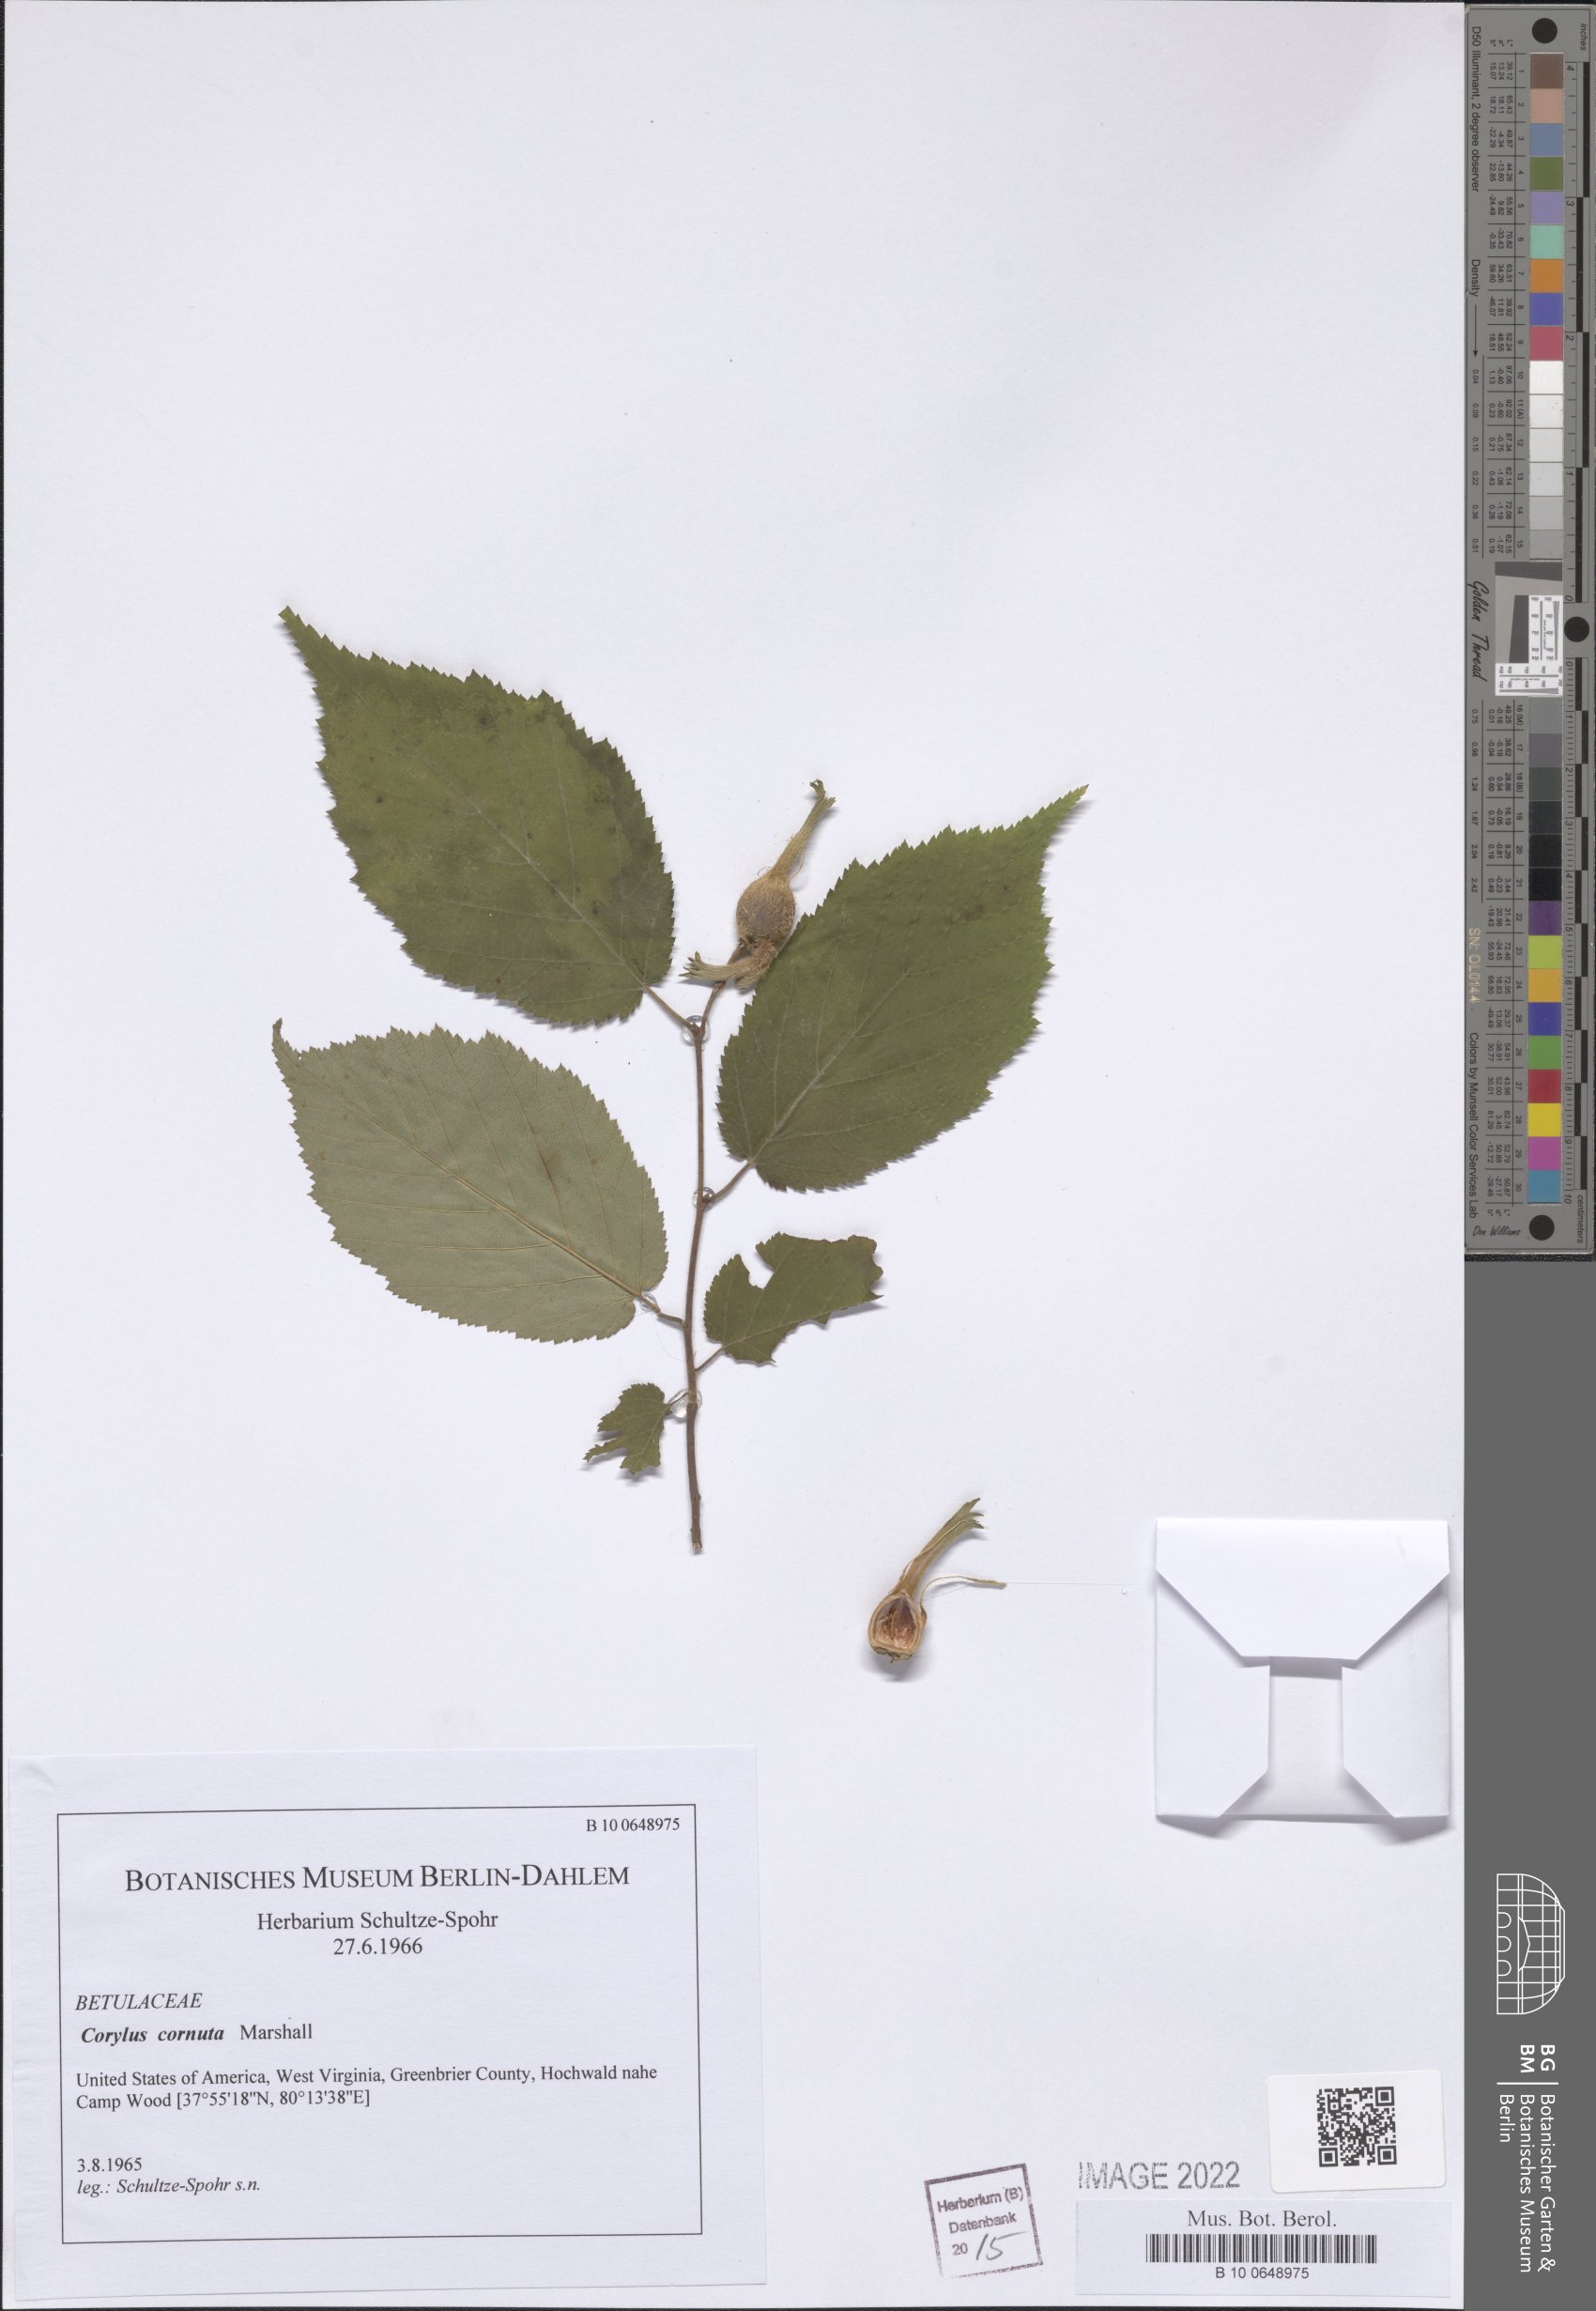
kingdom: Plantae
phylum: Tracheophyta
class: Magnoliopsida
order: Fagales
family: Betulaceae
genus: Corylus
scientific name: Corylus cornuta
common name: Beaked hazel
